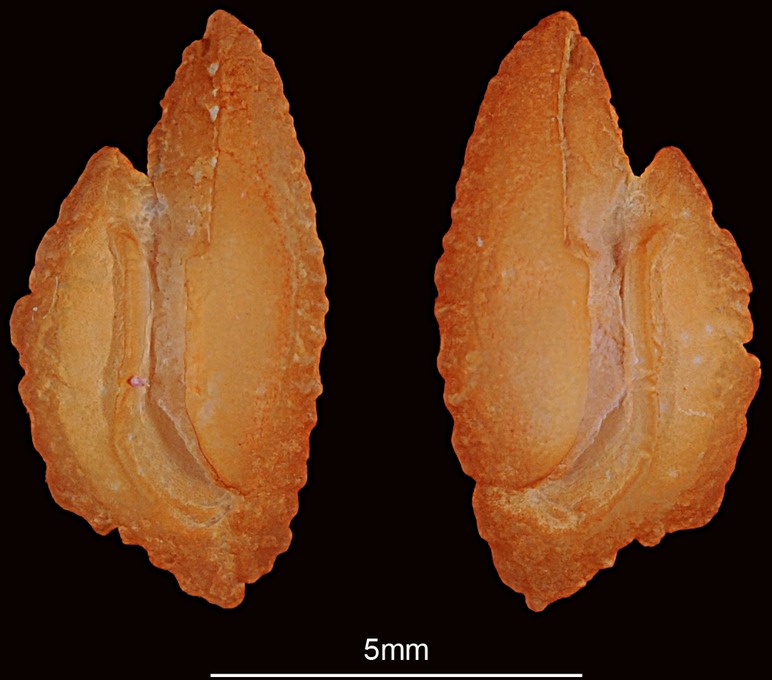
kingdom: Animalia
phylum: Chordata
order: Perciformes
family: Nemipteridae
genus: Nemipterus
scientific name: Nemipterus japonicus
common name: Japanese threadfin bream
